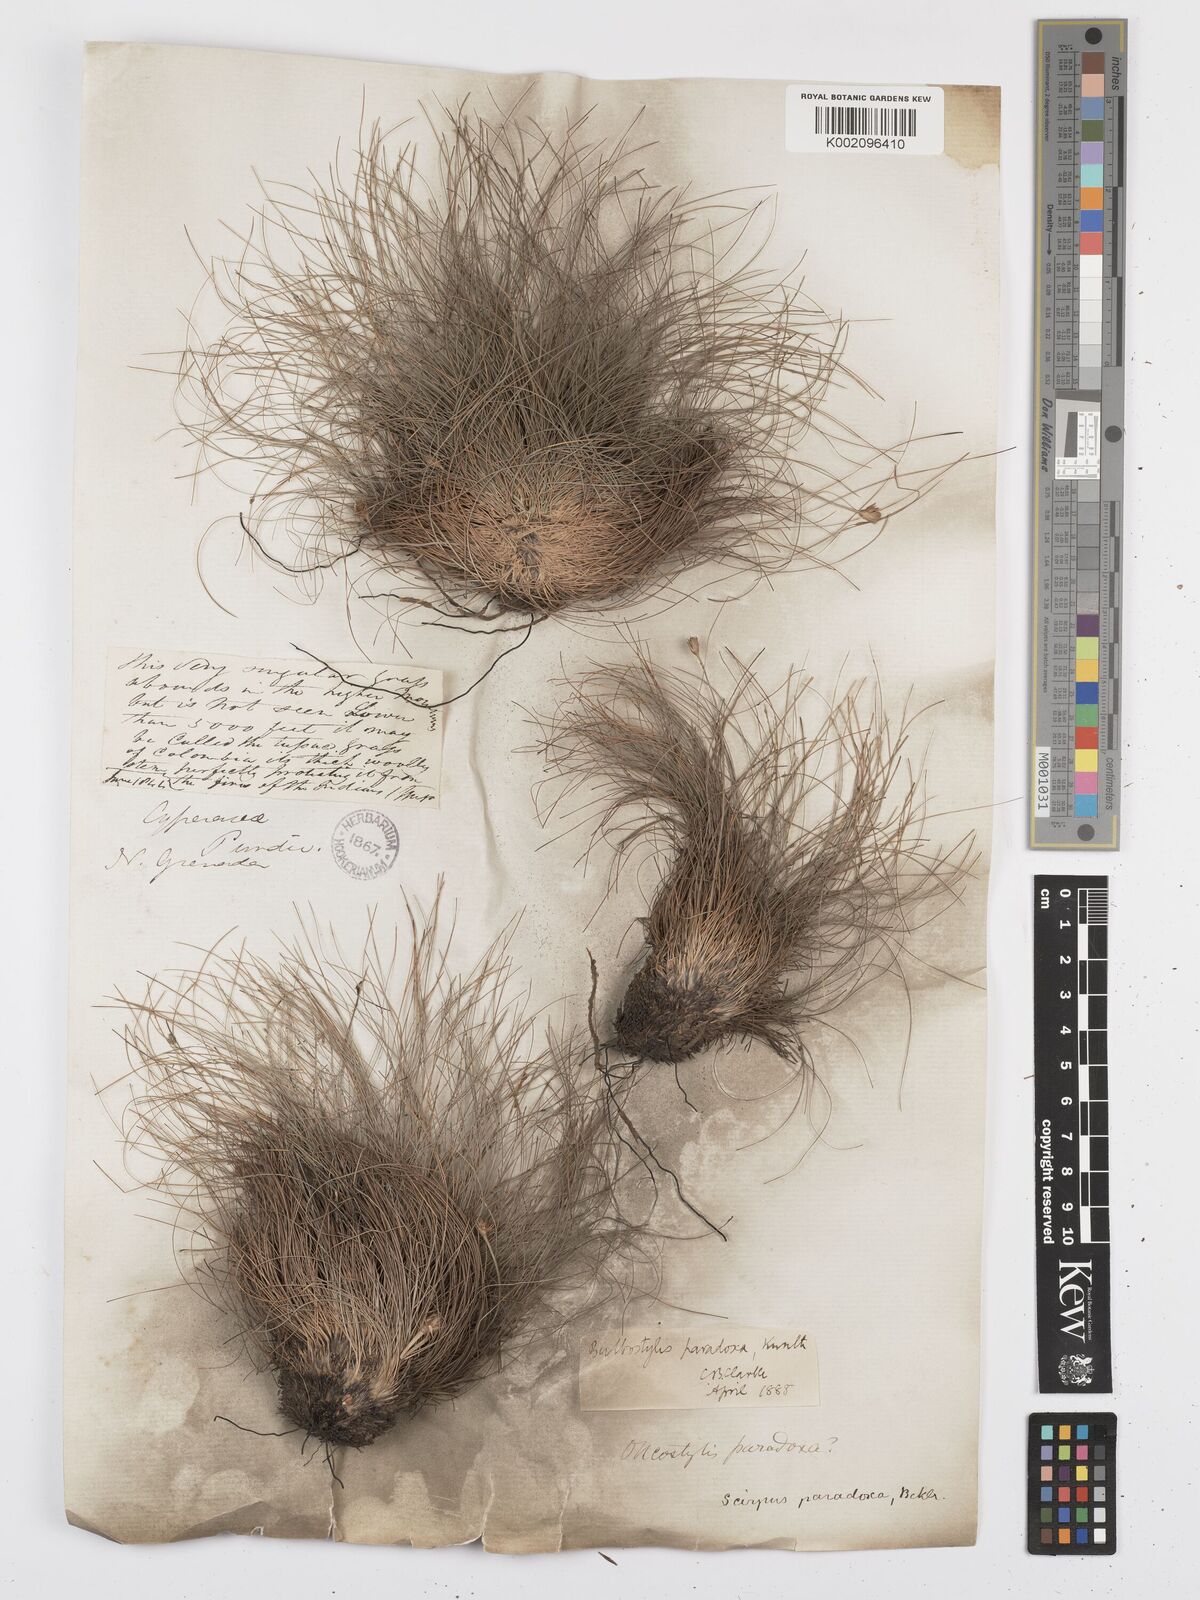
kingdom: Plantae
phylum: Tracheophyta
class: Liliopsida
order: Poales
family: Cyperaceae
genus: Bulbostylis
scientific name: Bulbostylis
